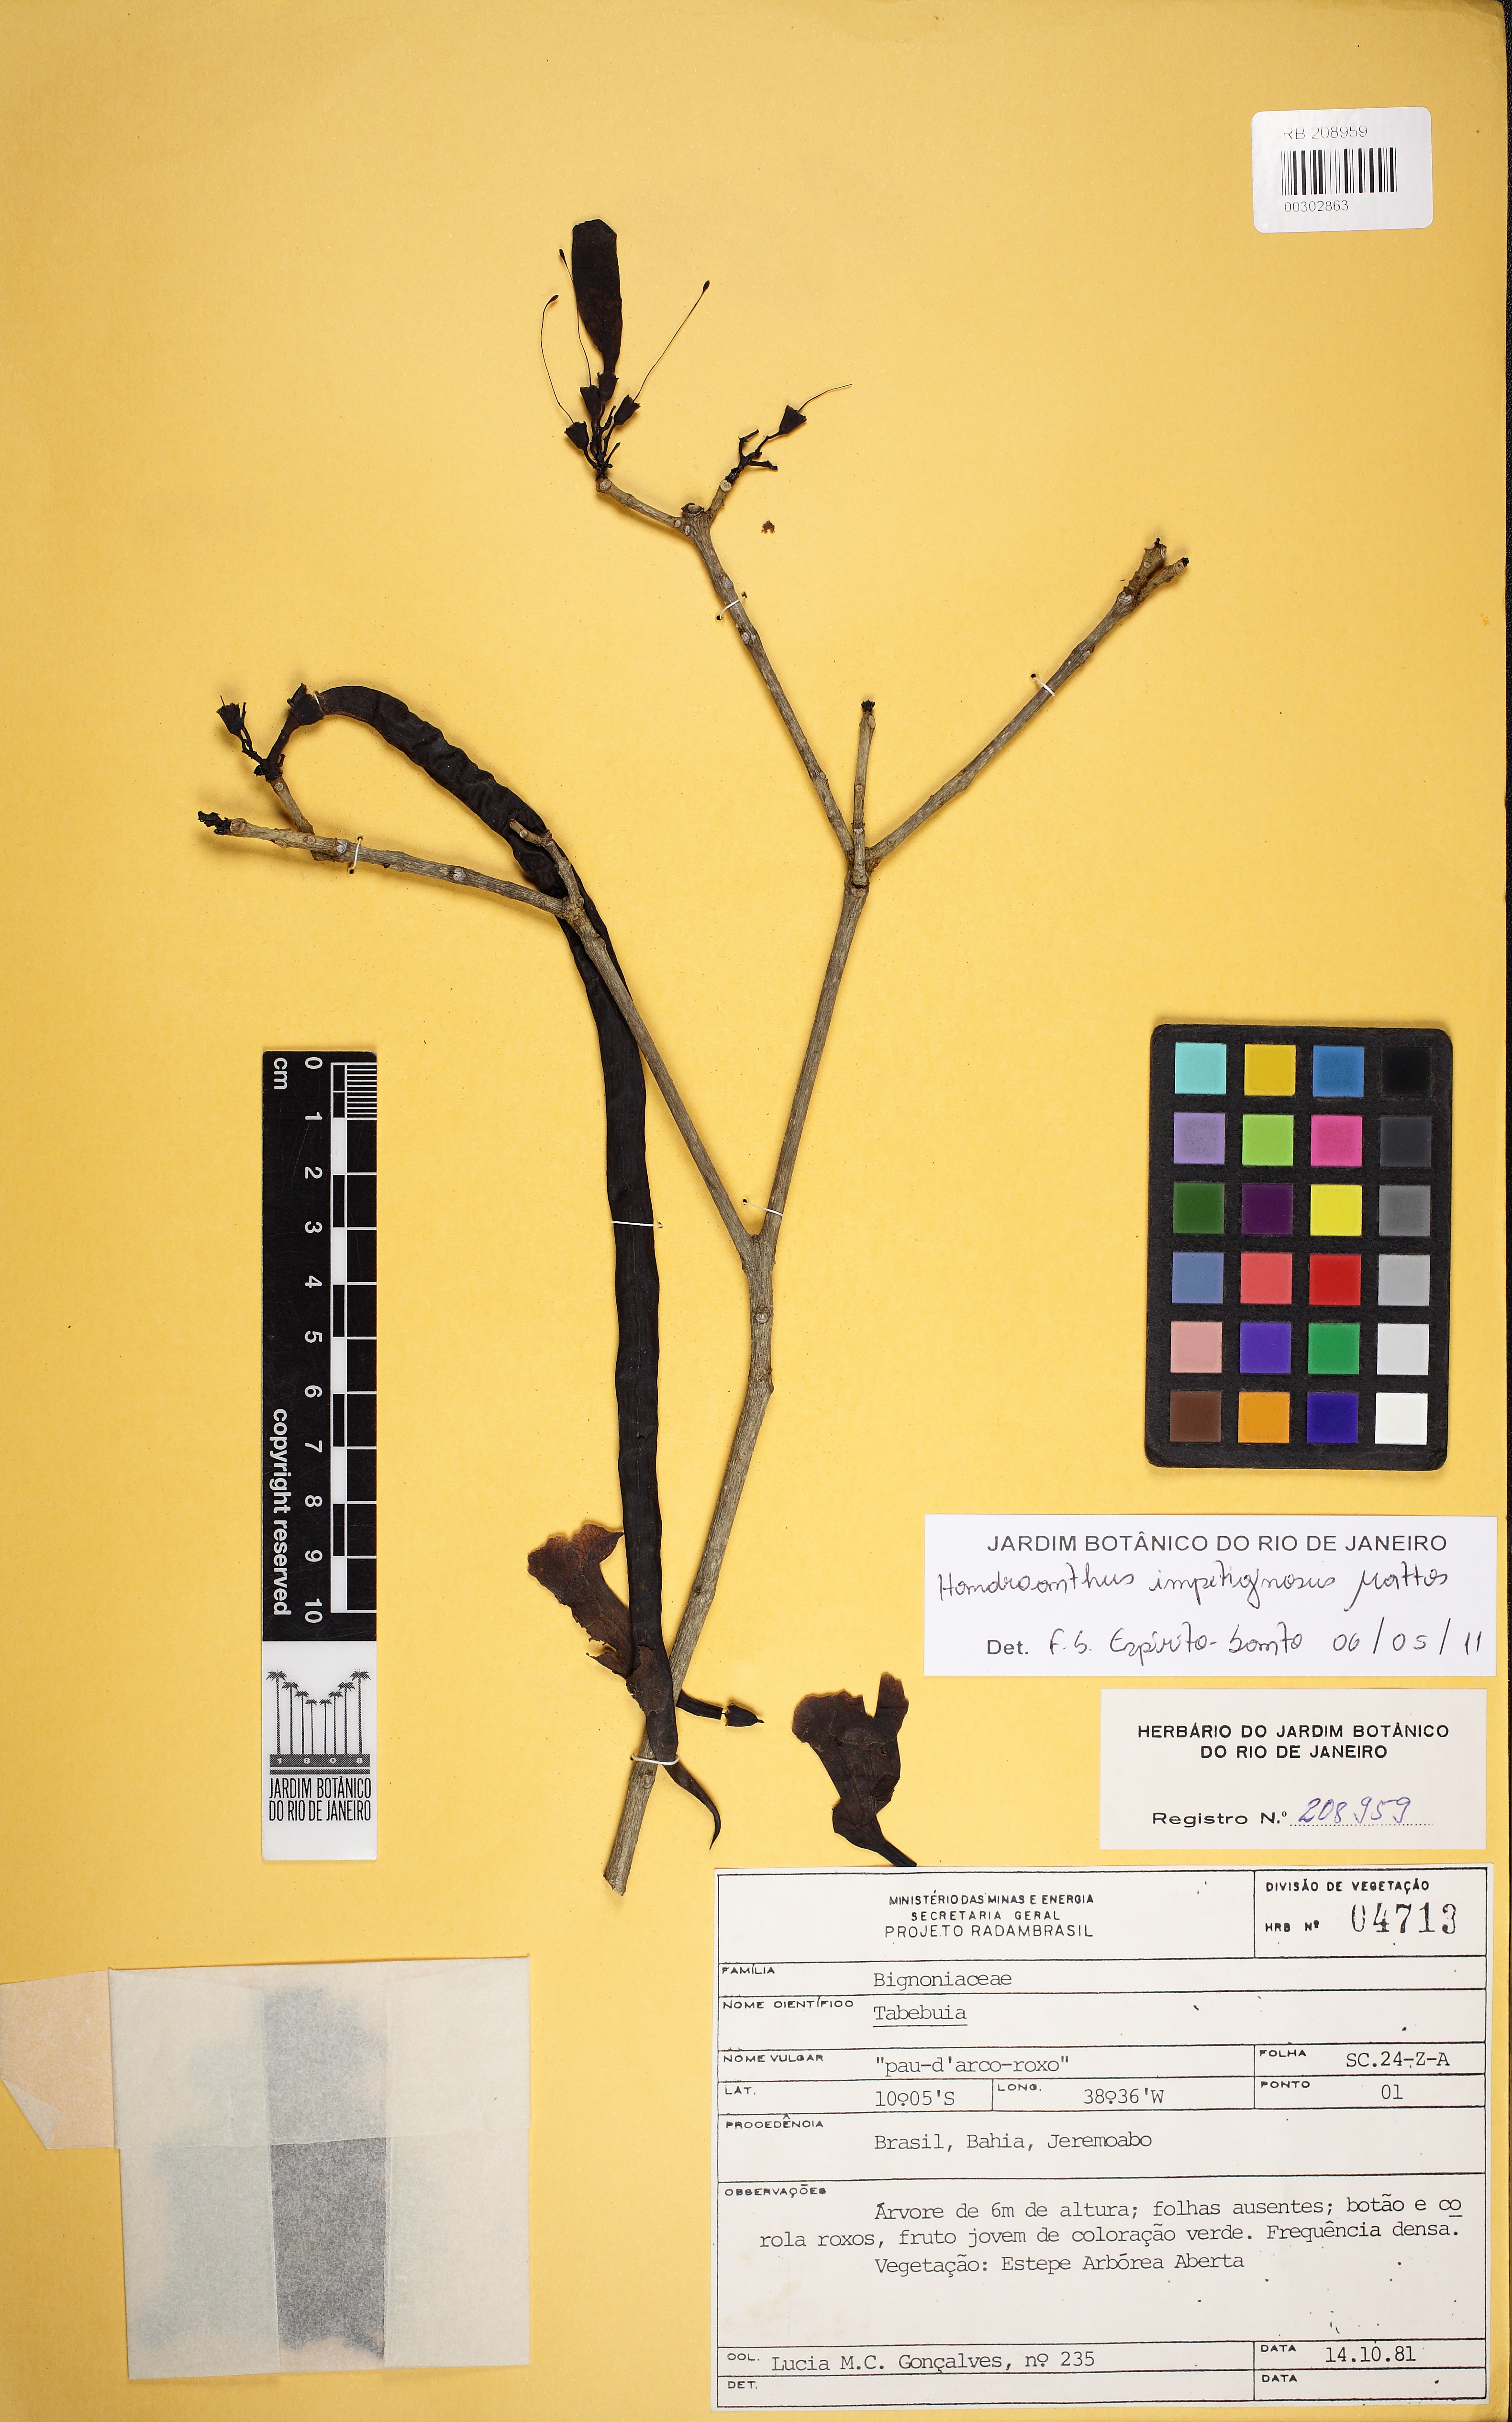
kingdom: Plantae
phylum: Tracheophyta
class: Magnoliopsida
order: Lamiales
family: Bignoniaceae
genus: Handroanthus
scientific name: Handroanthus impetiginosum
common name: Pink trumpet tree
